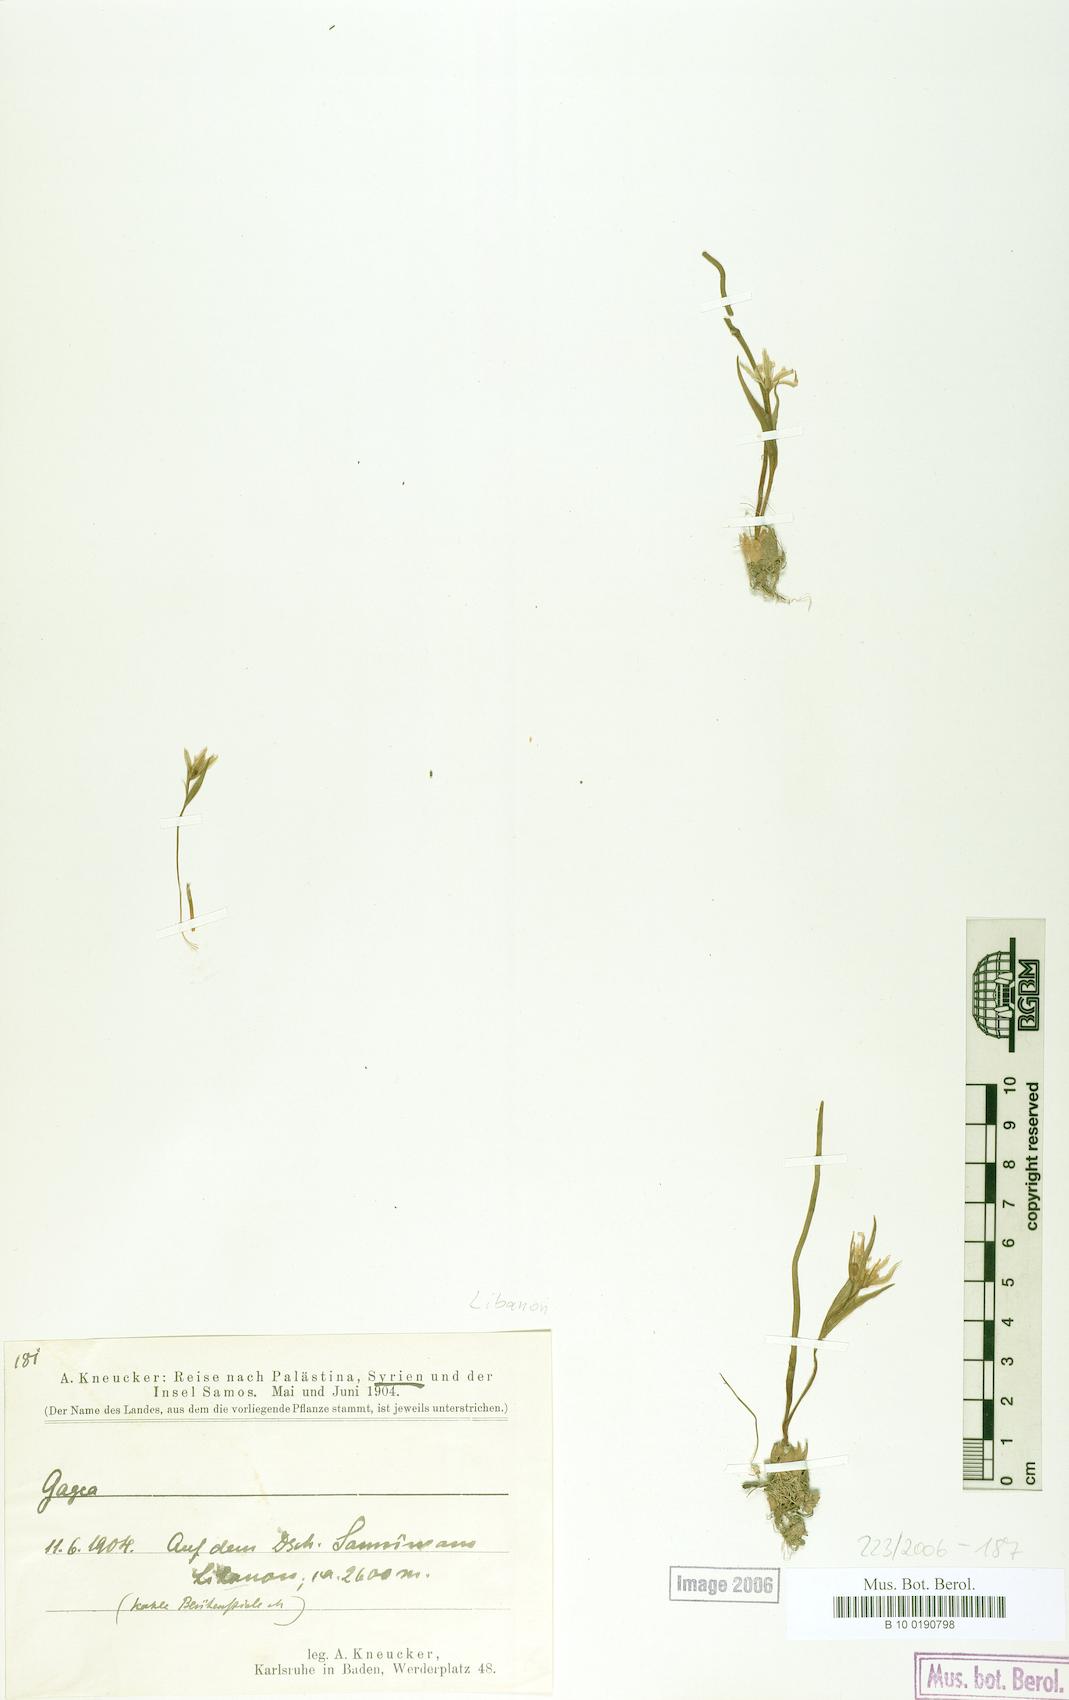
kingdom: Plantae
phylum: Tracheophyta
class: Liliopsida
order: Liliales
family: Liliaceae
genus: Gagea
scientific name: Gagea
